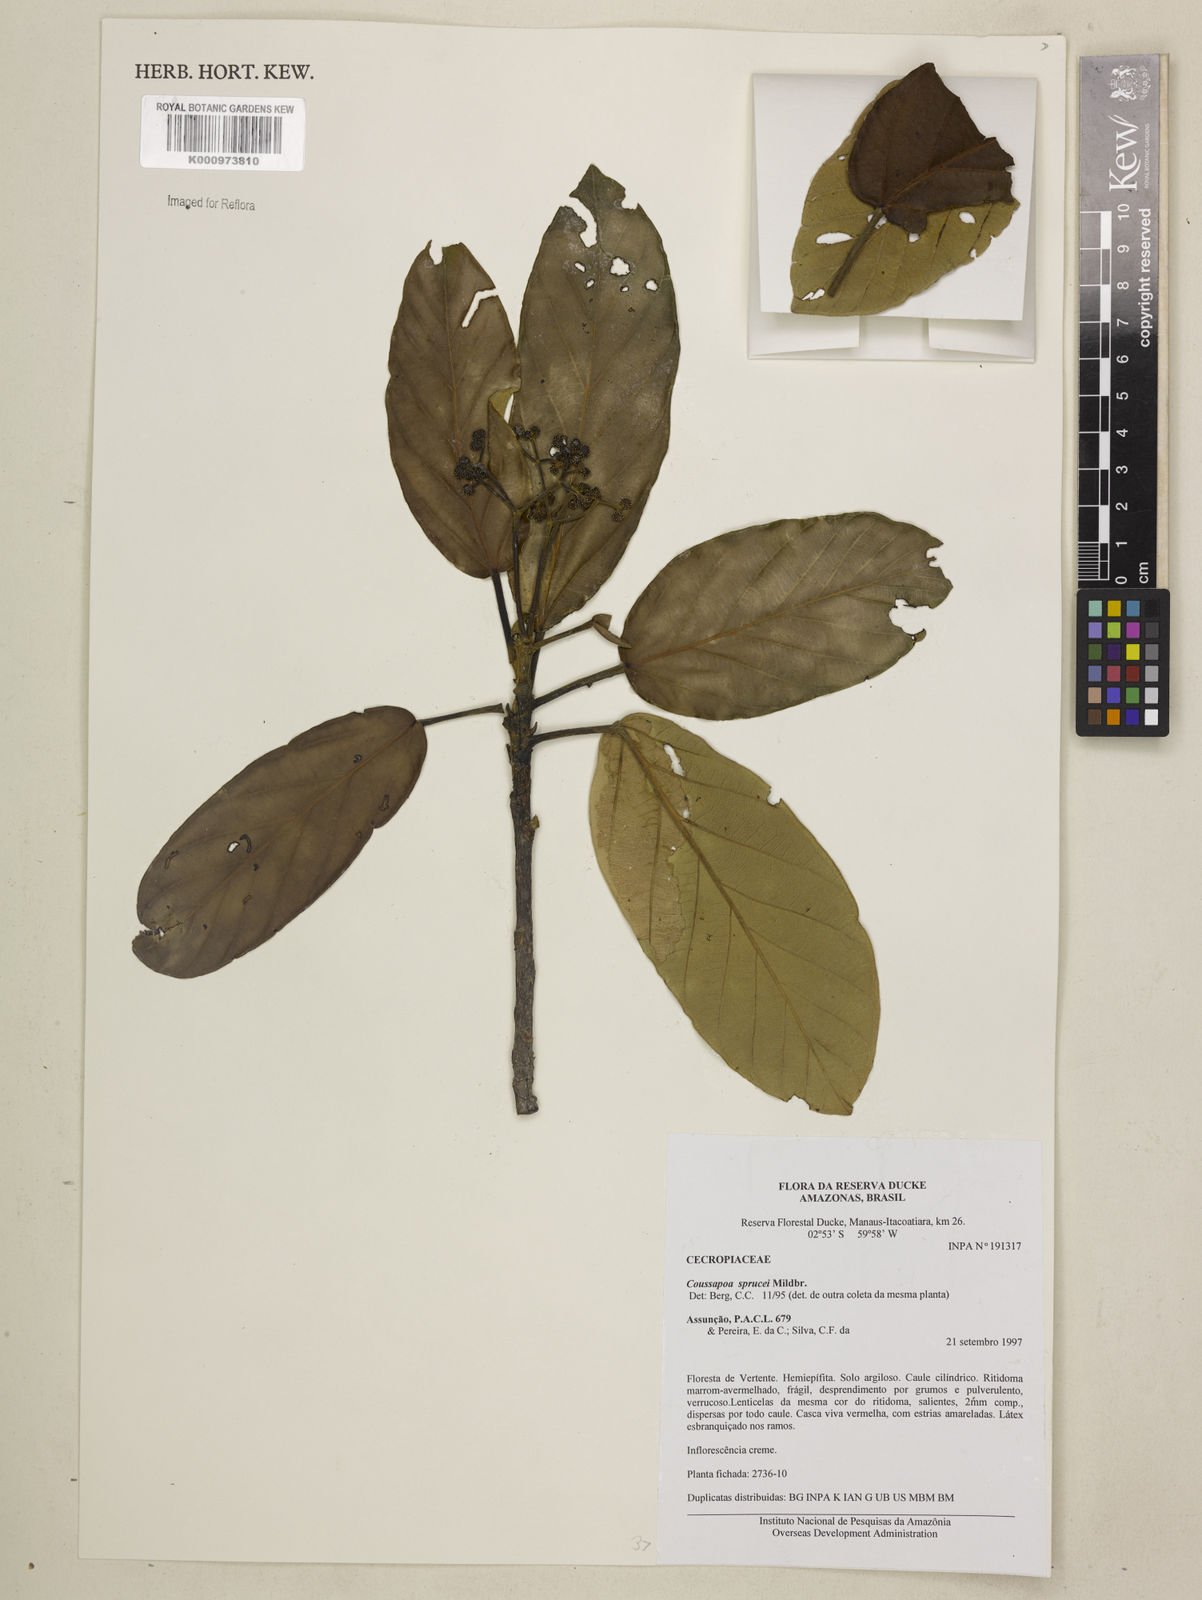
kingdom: Plantae
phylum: Tracheophyta
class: Magnoliopsida
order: Rosales
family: Urticaceae
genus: Coussapoa
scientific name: Coussapoa sprucei
